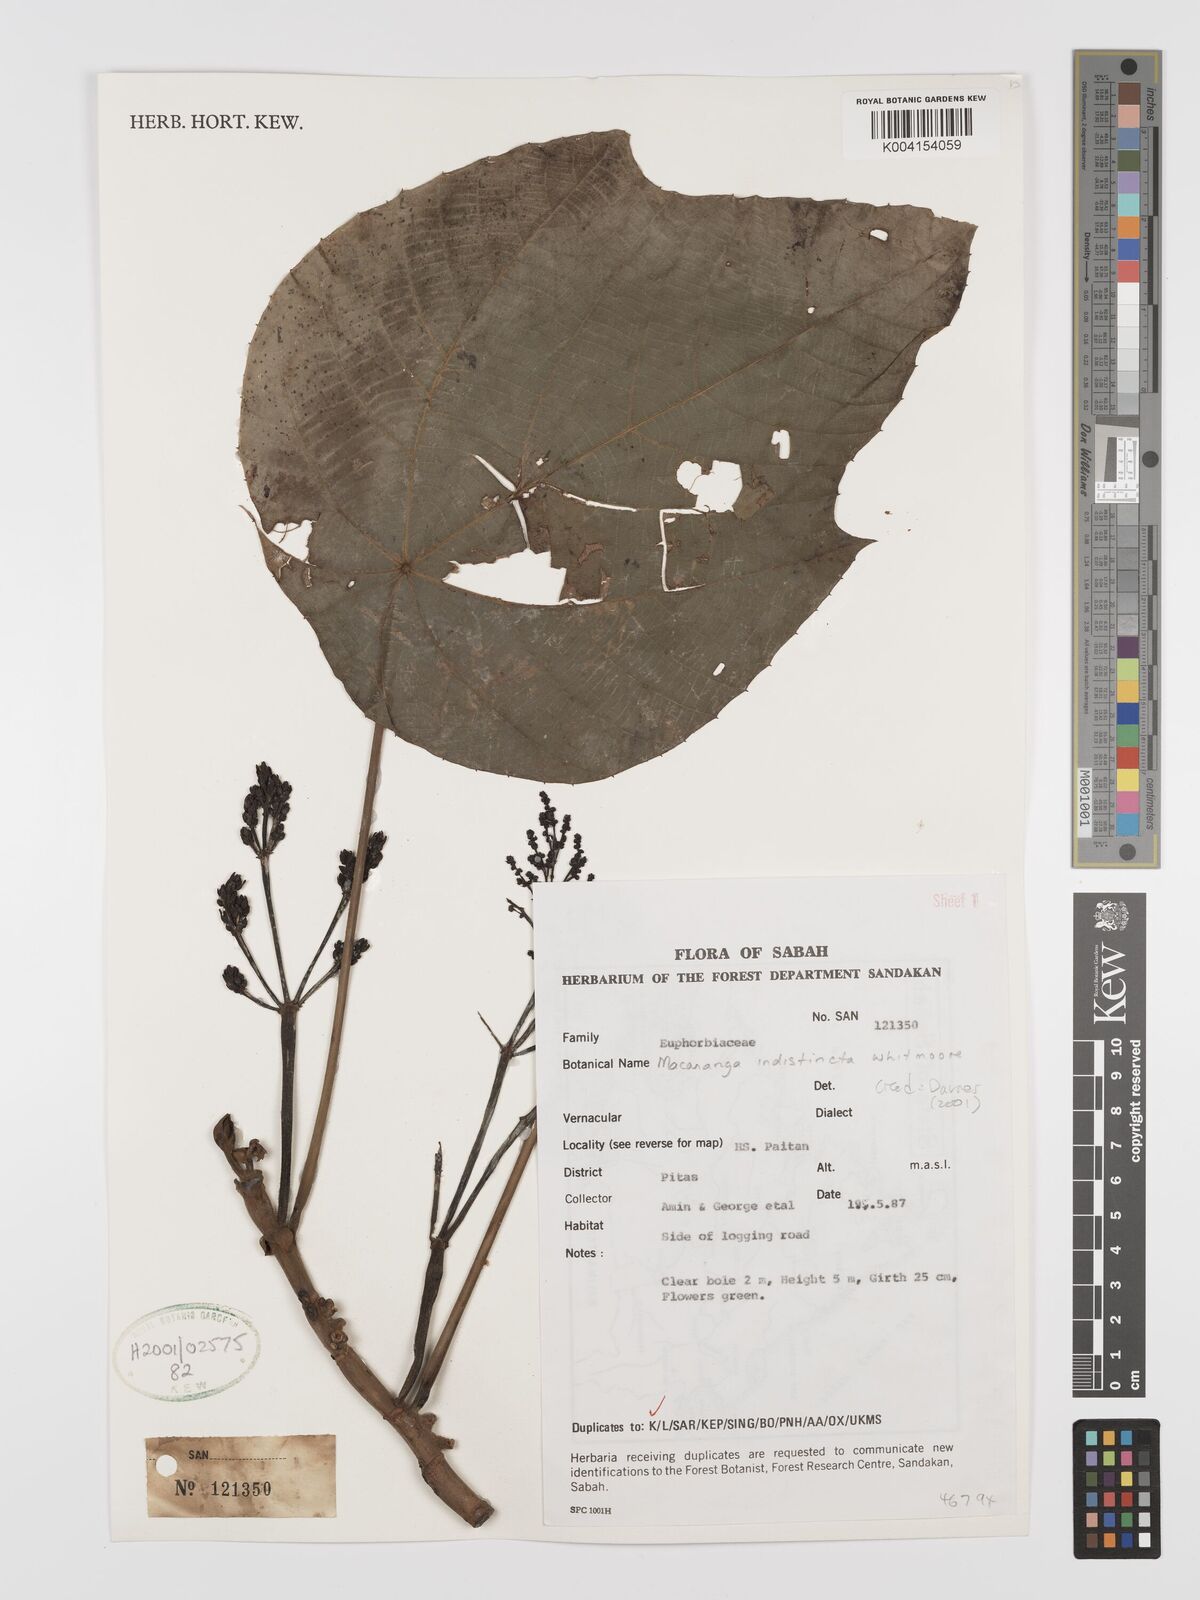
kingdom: Plantae
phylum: Tracheophyta
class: Magnoliopsida
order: Malpighiales
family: Euphorbiaceae
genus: Macaranga
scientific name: Macaranga indistincta
